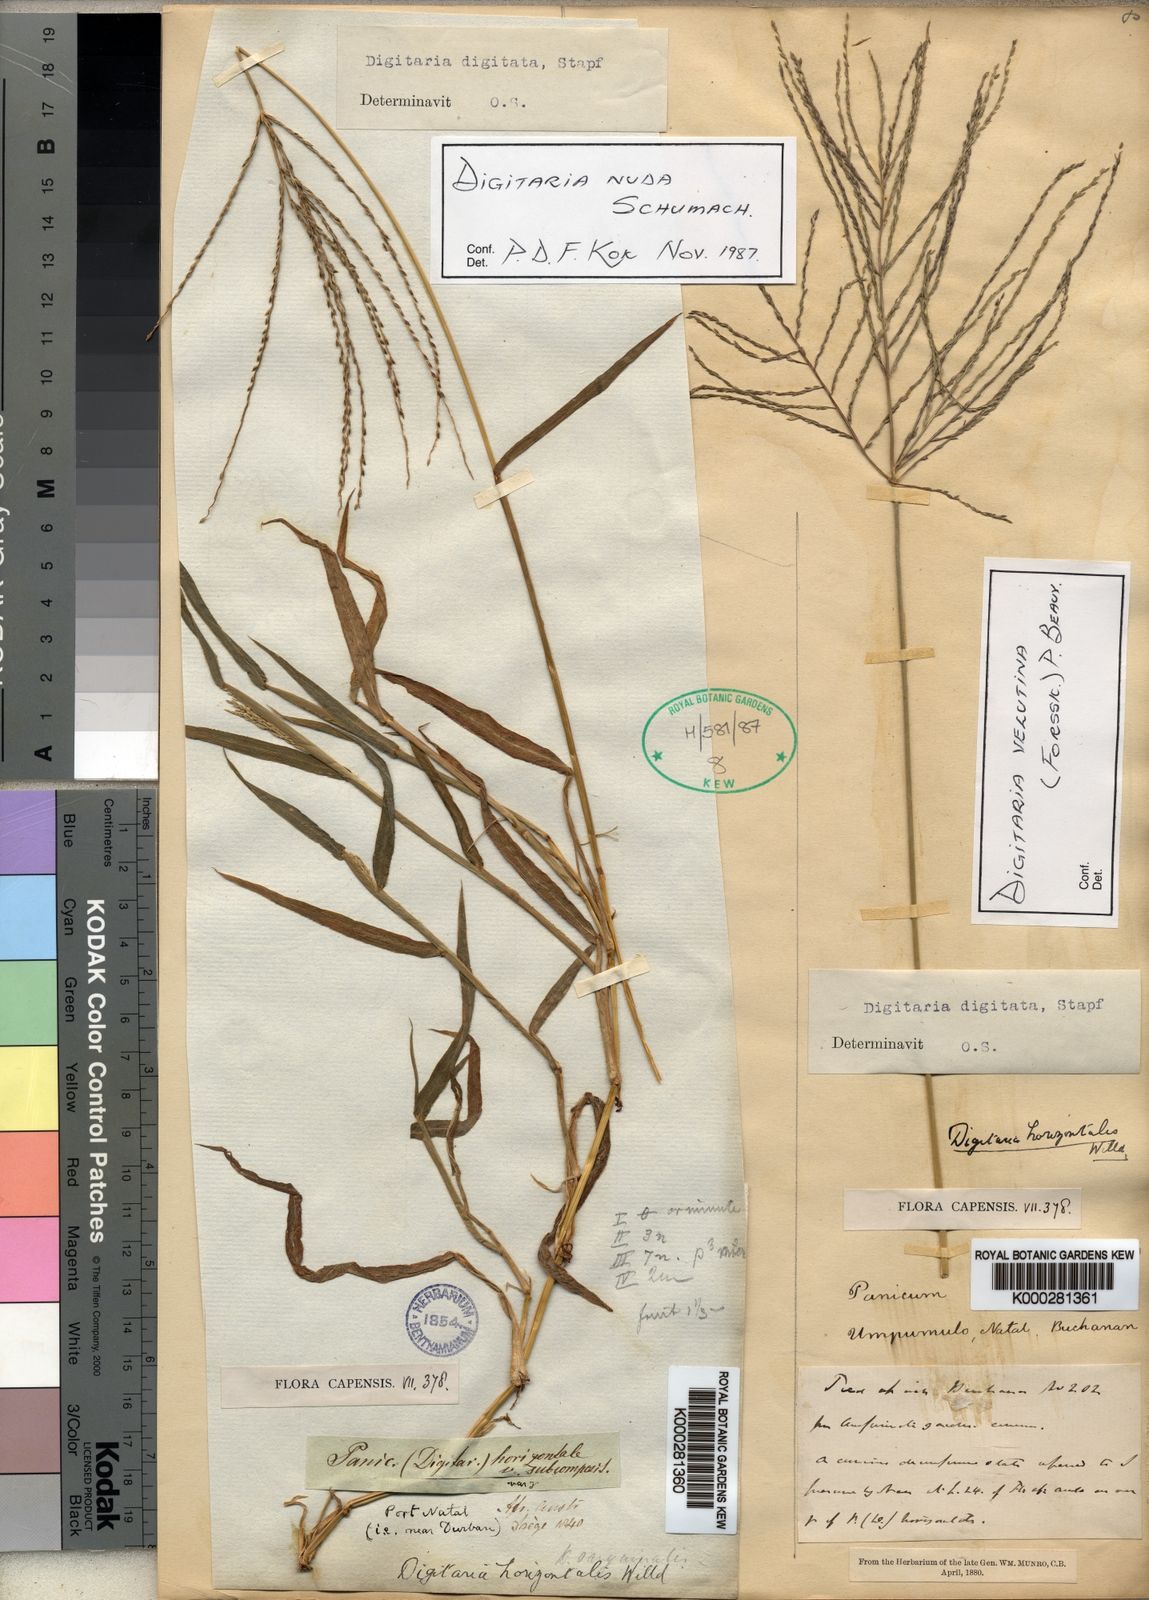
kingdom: Plantae
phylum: Tracheophyta
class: Liliopsida
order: Poales
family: Poaceae
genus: Digitaria
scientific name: Digitaria nuda
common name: Naked crabgrass
